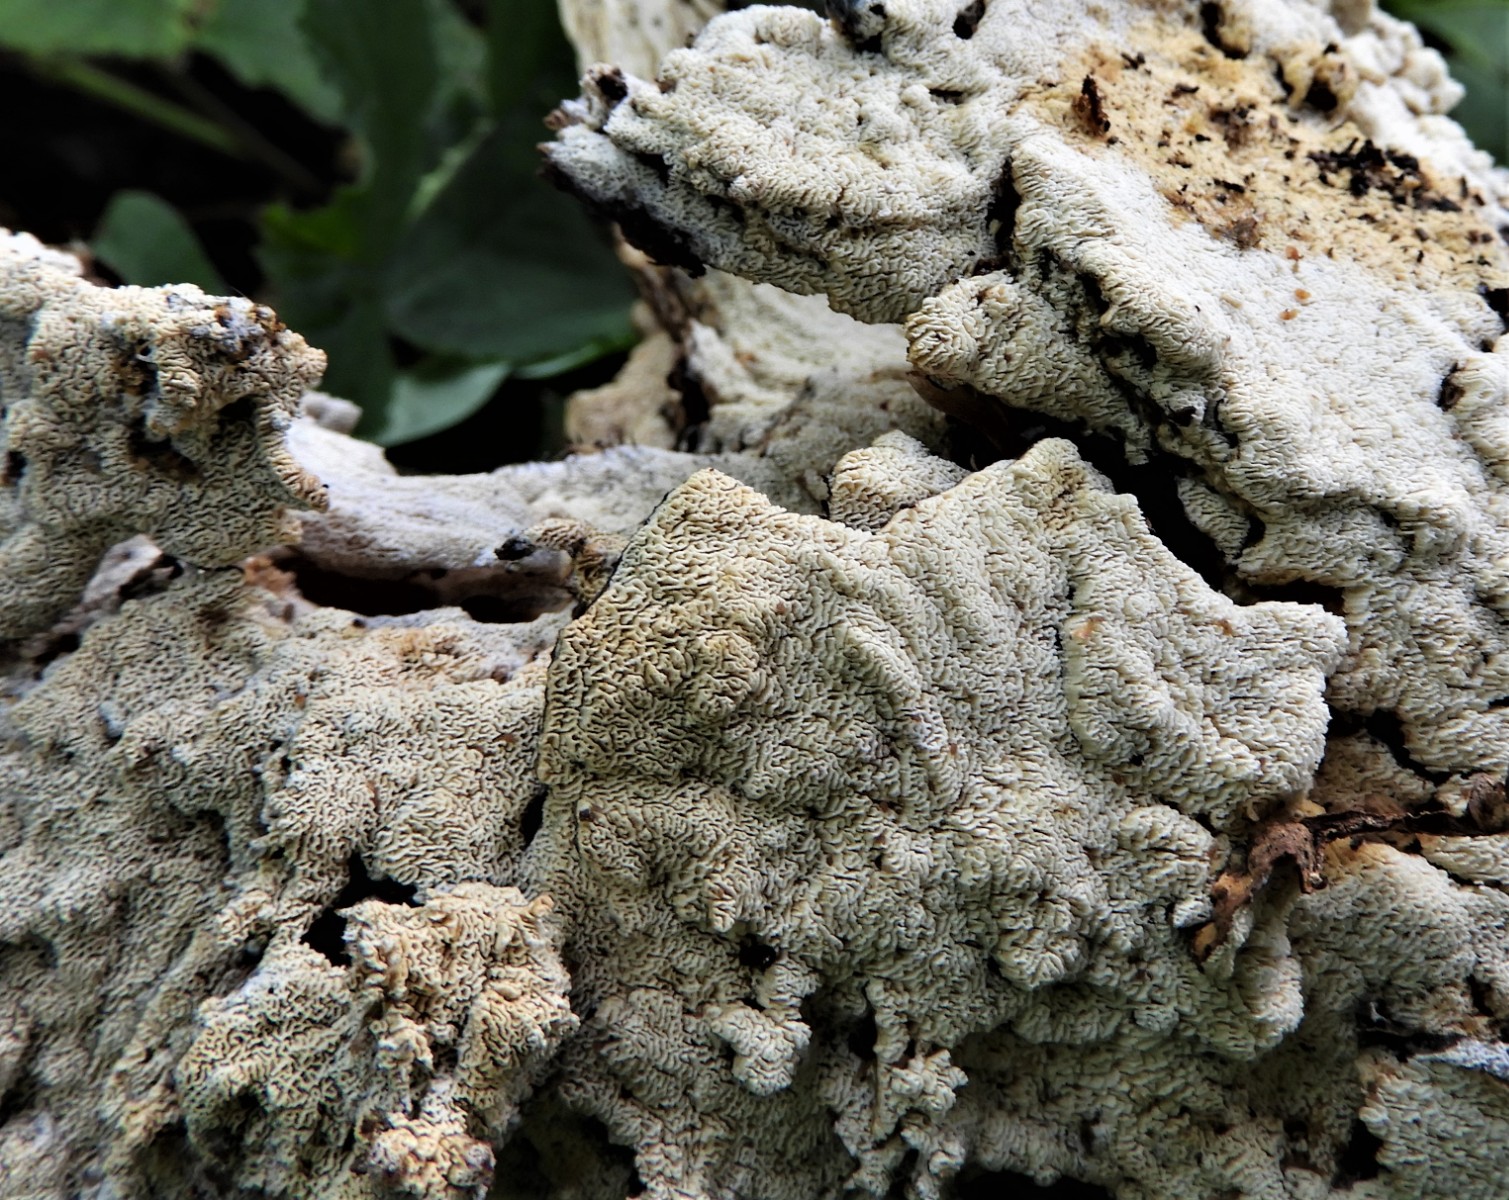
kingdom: Fungi
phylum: Basidiomycota
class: Agaricomycetes
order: Polyporales
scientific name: Polyporales
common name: poresvampordenen
